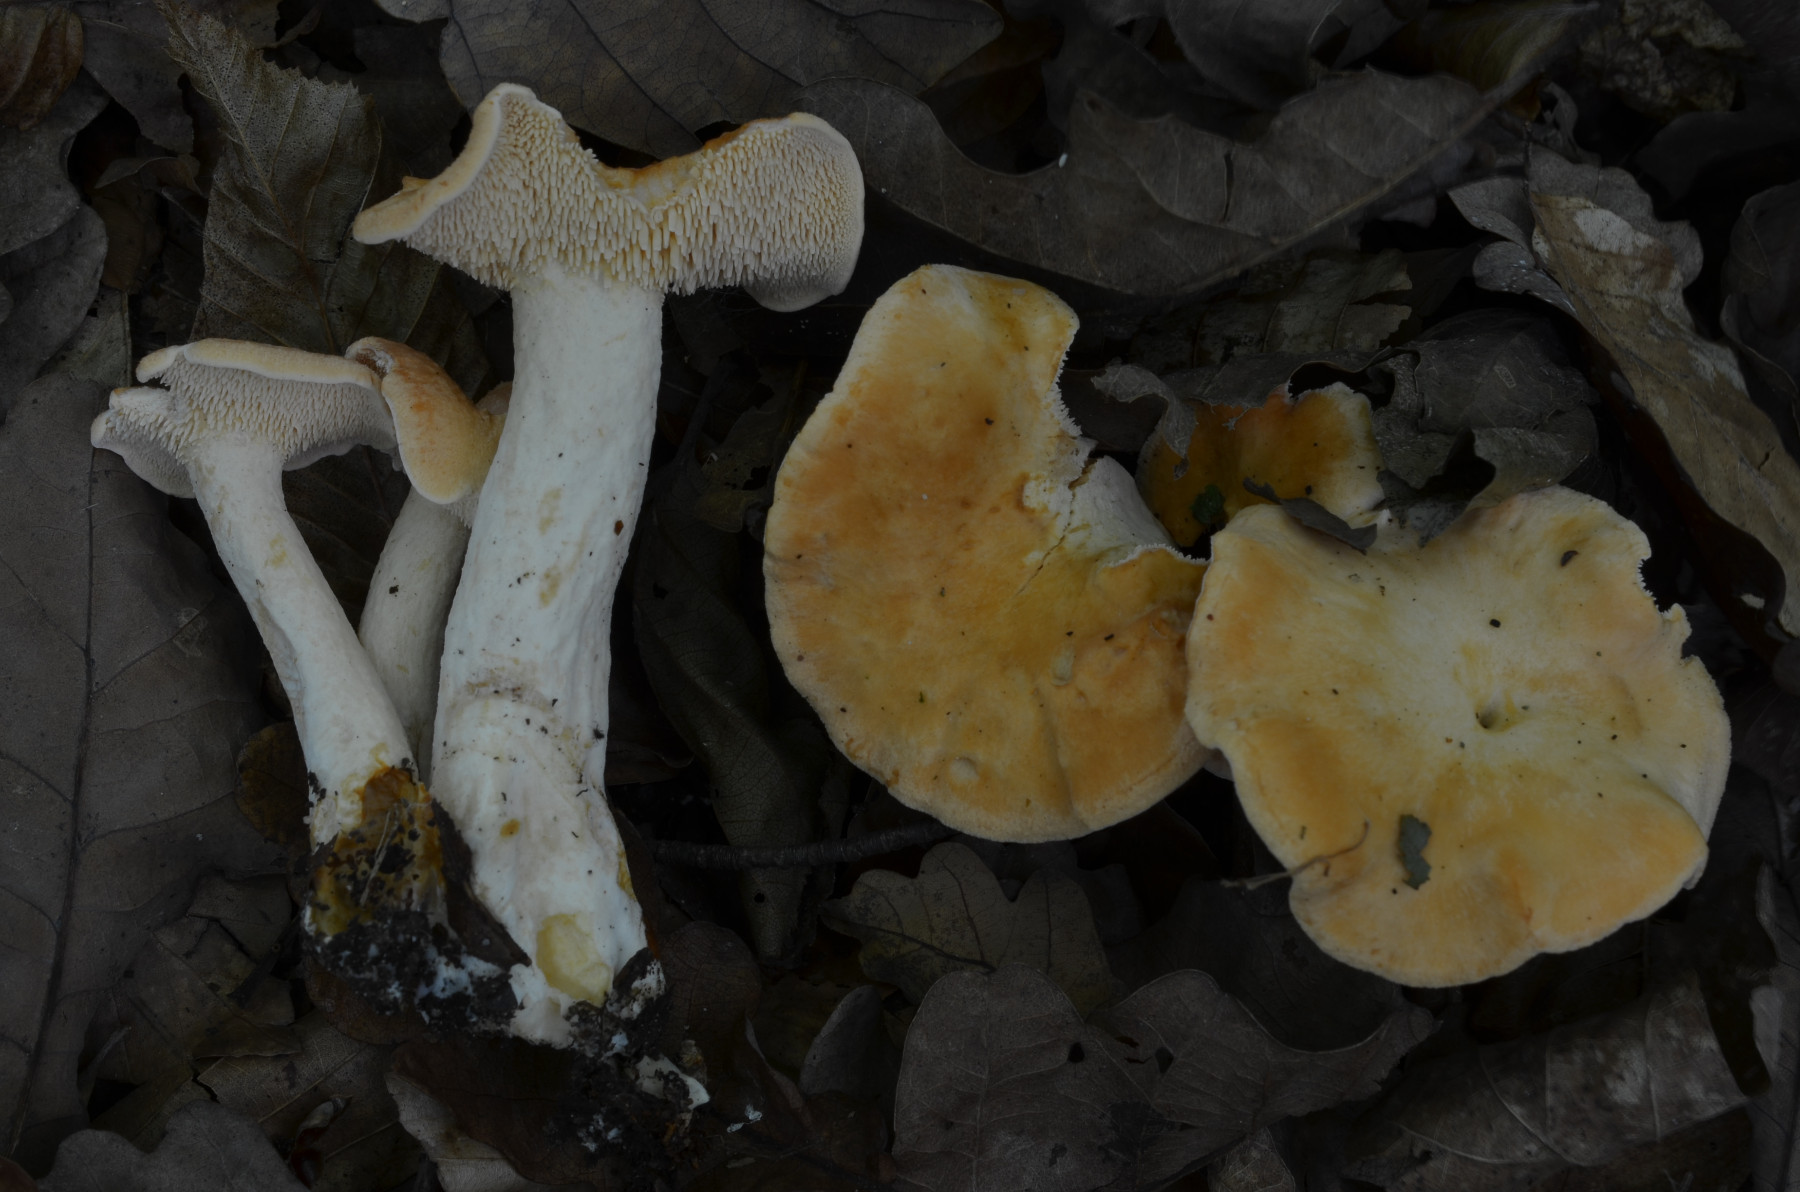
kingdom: Fungi
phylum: Basidiomycota
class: Agaricomycetes
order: Cantharellales
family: Hydnaceae
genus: Hydnum
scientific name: Hydnum umbilicatum
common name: navle-pigsvamp
